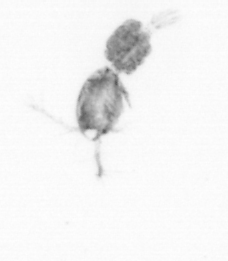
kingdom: Animalia
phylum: Arthropoda
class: Copepoda
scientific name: Copepoda
